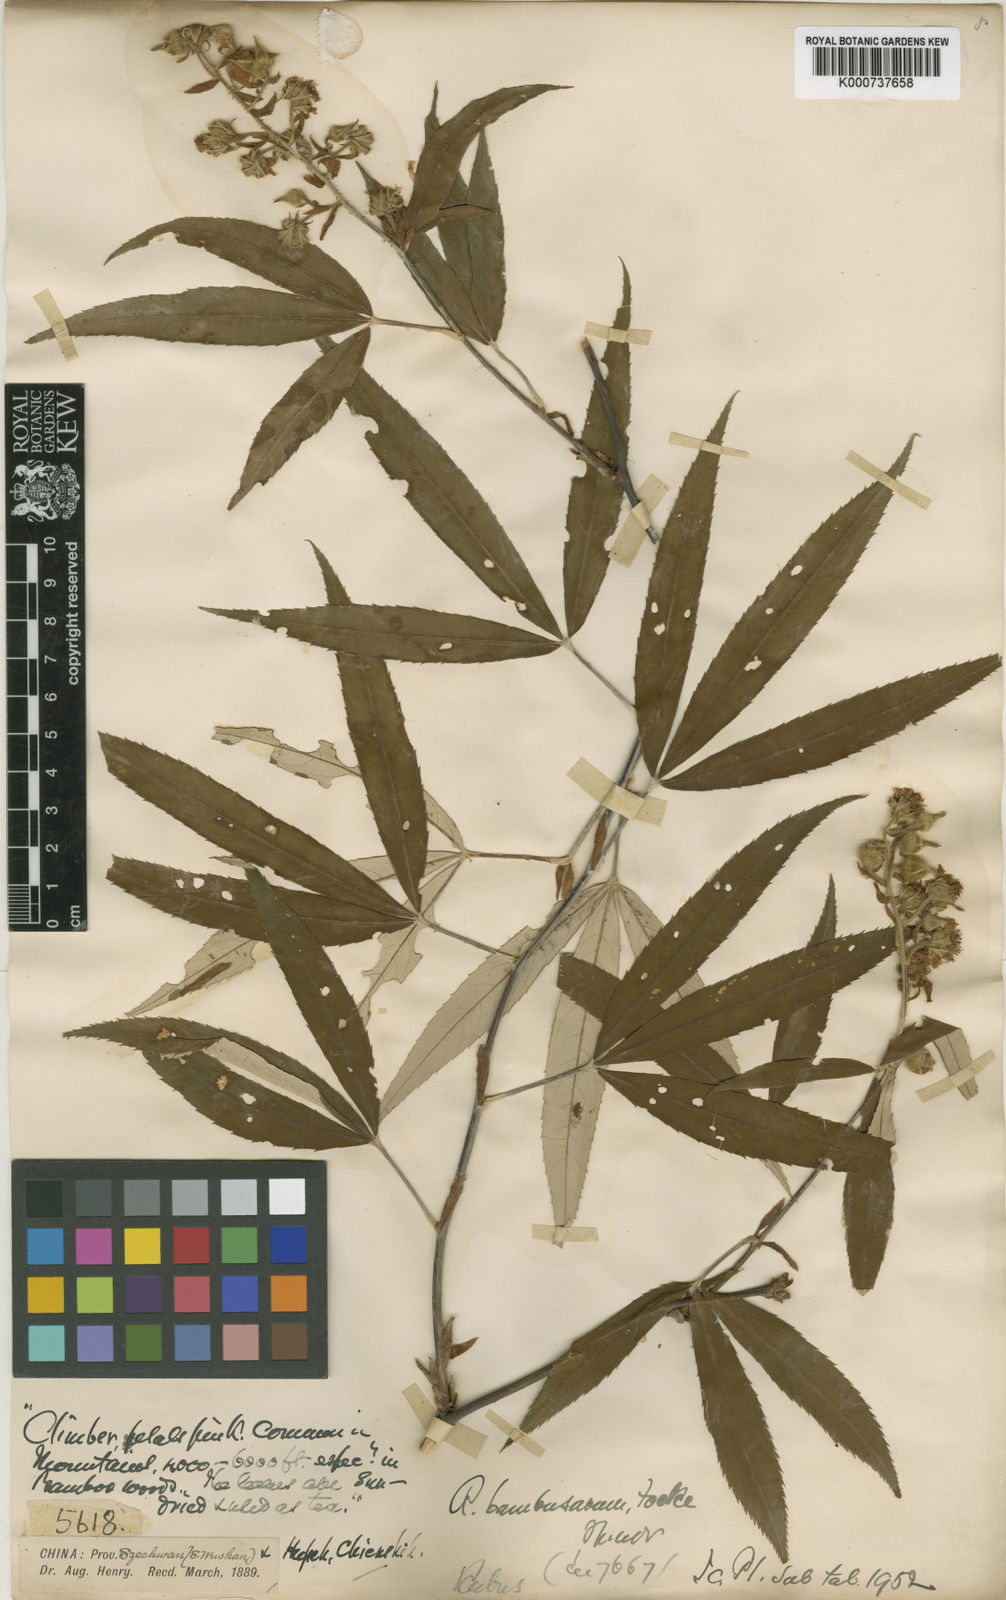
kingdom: Plantae
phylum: Tracheophyta
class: Magnoliopsida
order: Rosales
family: Rosaceae
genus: Rubus
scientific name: Rubus bambusarum
